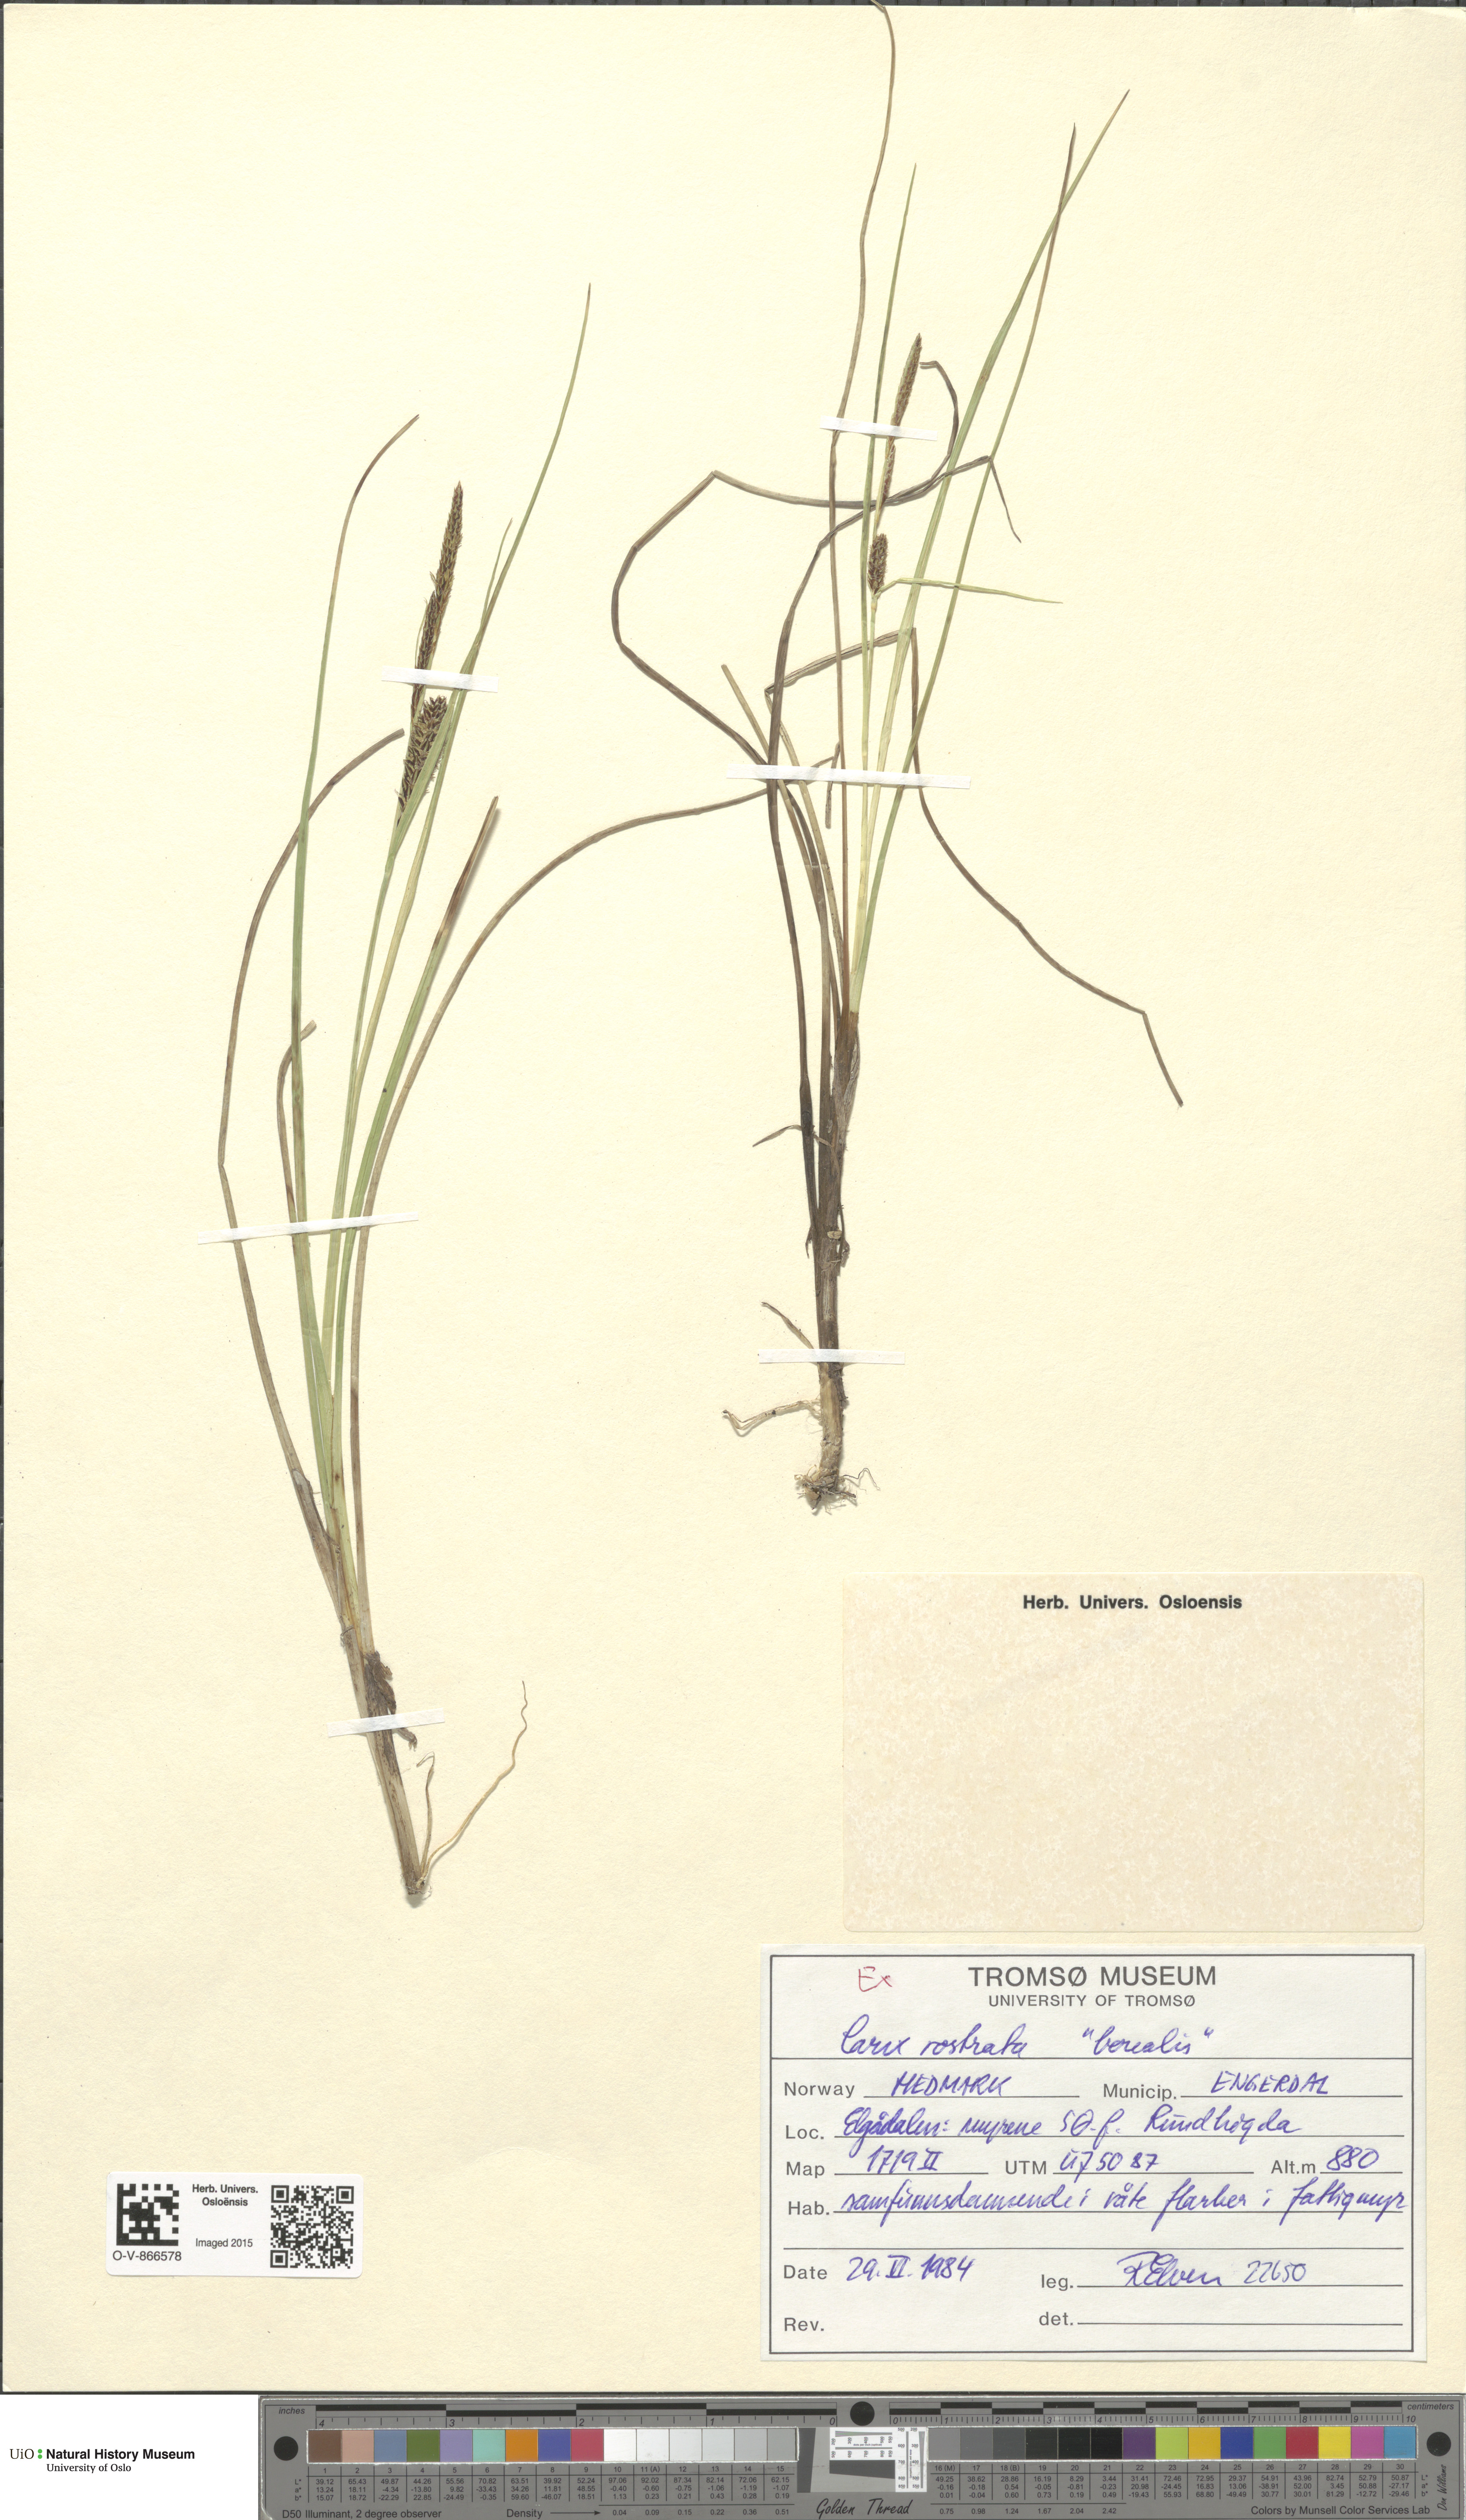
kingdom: Plantae
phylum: Tracheophyta
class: Liliopsida
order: Poales
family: Cyperaceae
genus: Carex
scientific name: Carex rostrata
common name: Bottle sedge
